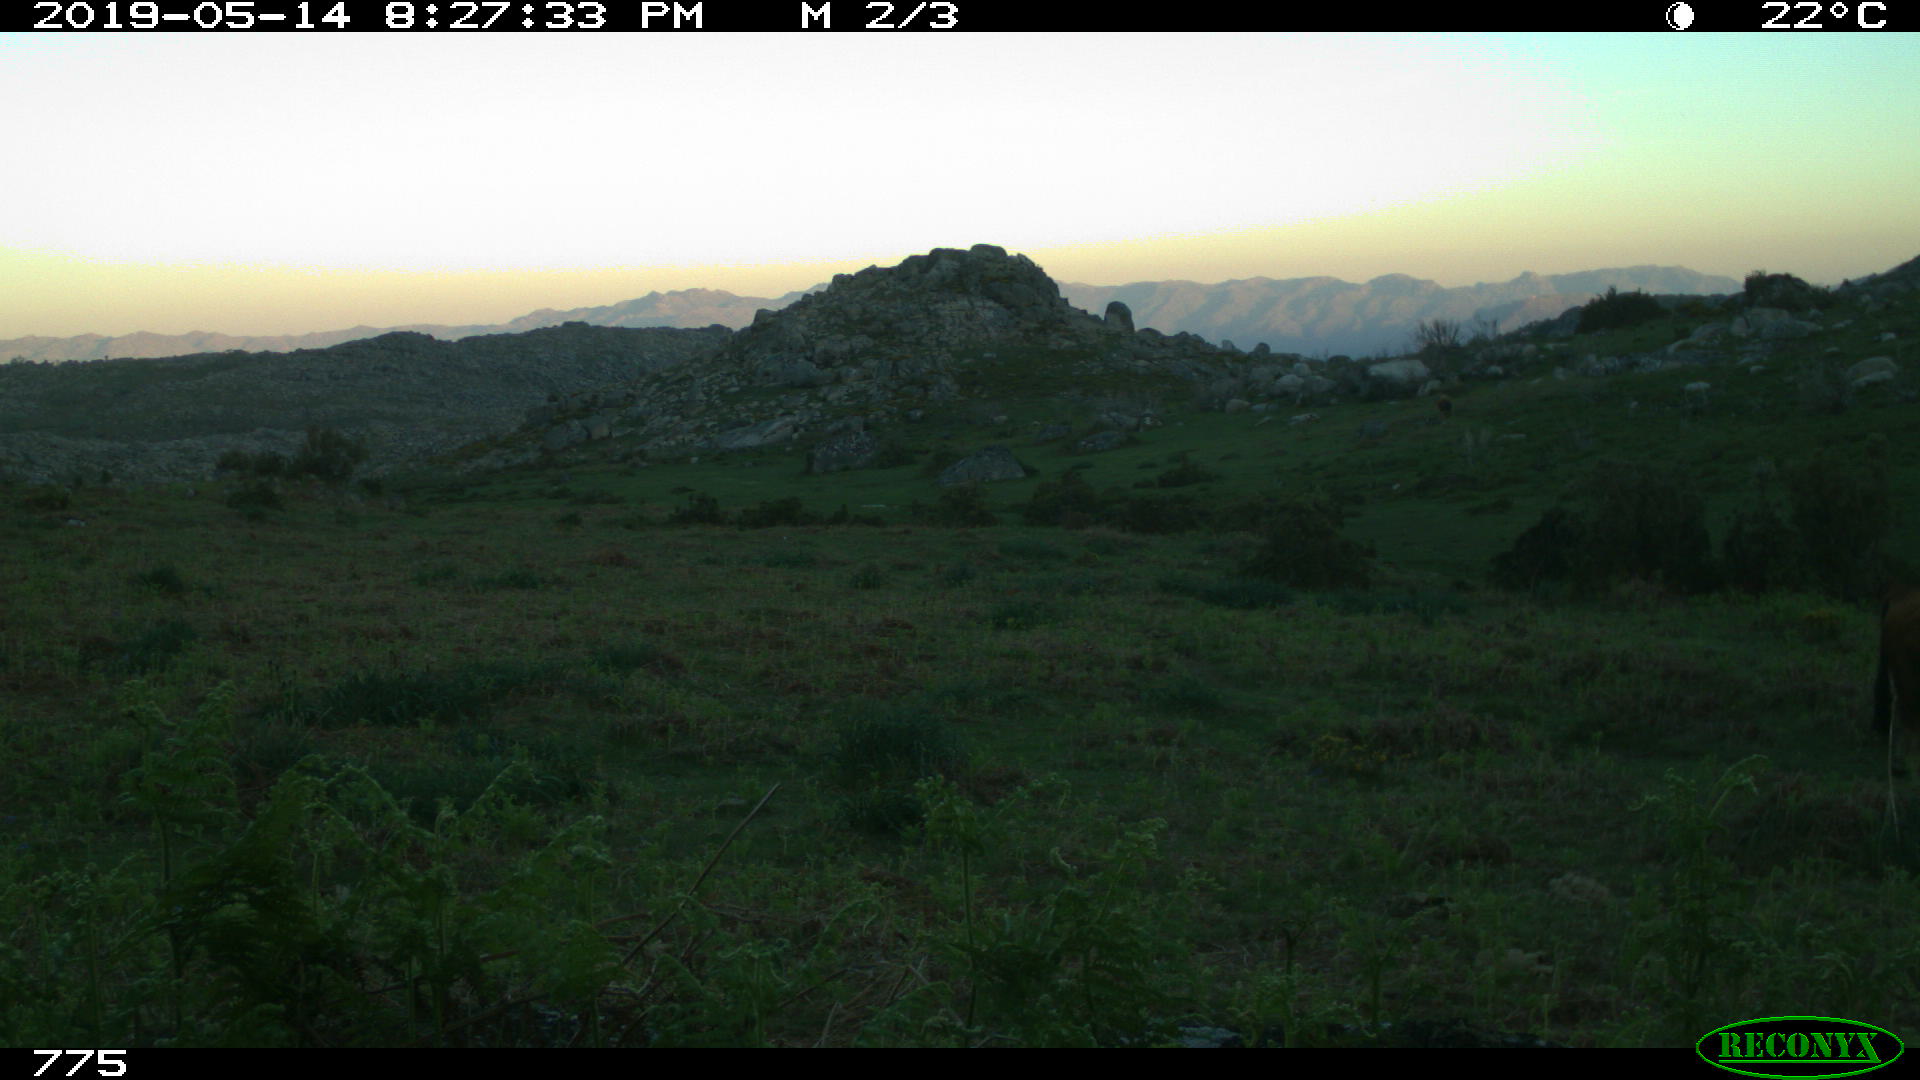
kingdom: Animalia
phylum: Chordata
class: Mammalia
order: Artiodactyla
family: Bovidae
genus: Bos
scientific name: Bos taurus
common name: Domesticated cattle
